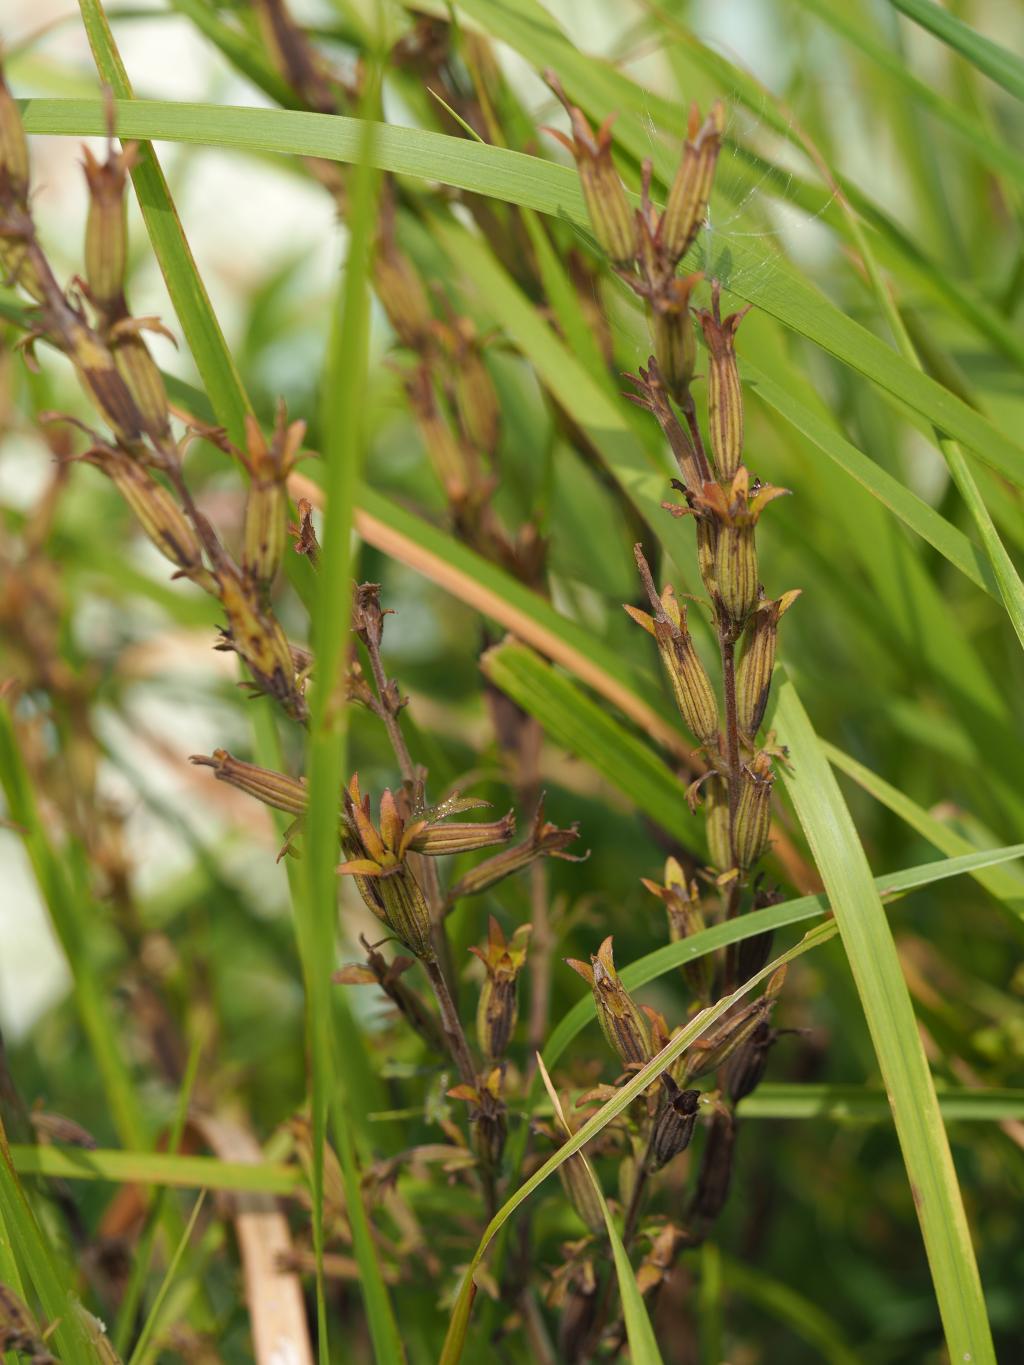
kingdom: Plantae
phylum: Tracheophyta
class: Magnoliopsida
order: Lamiales
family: Orobanchaceae
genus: Siphonostegia
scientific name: Siphonostegia chinensis
